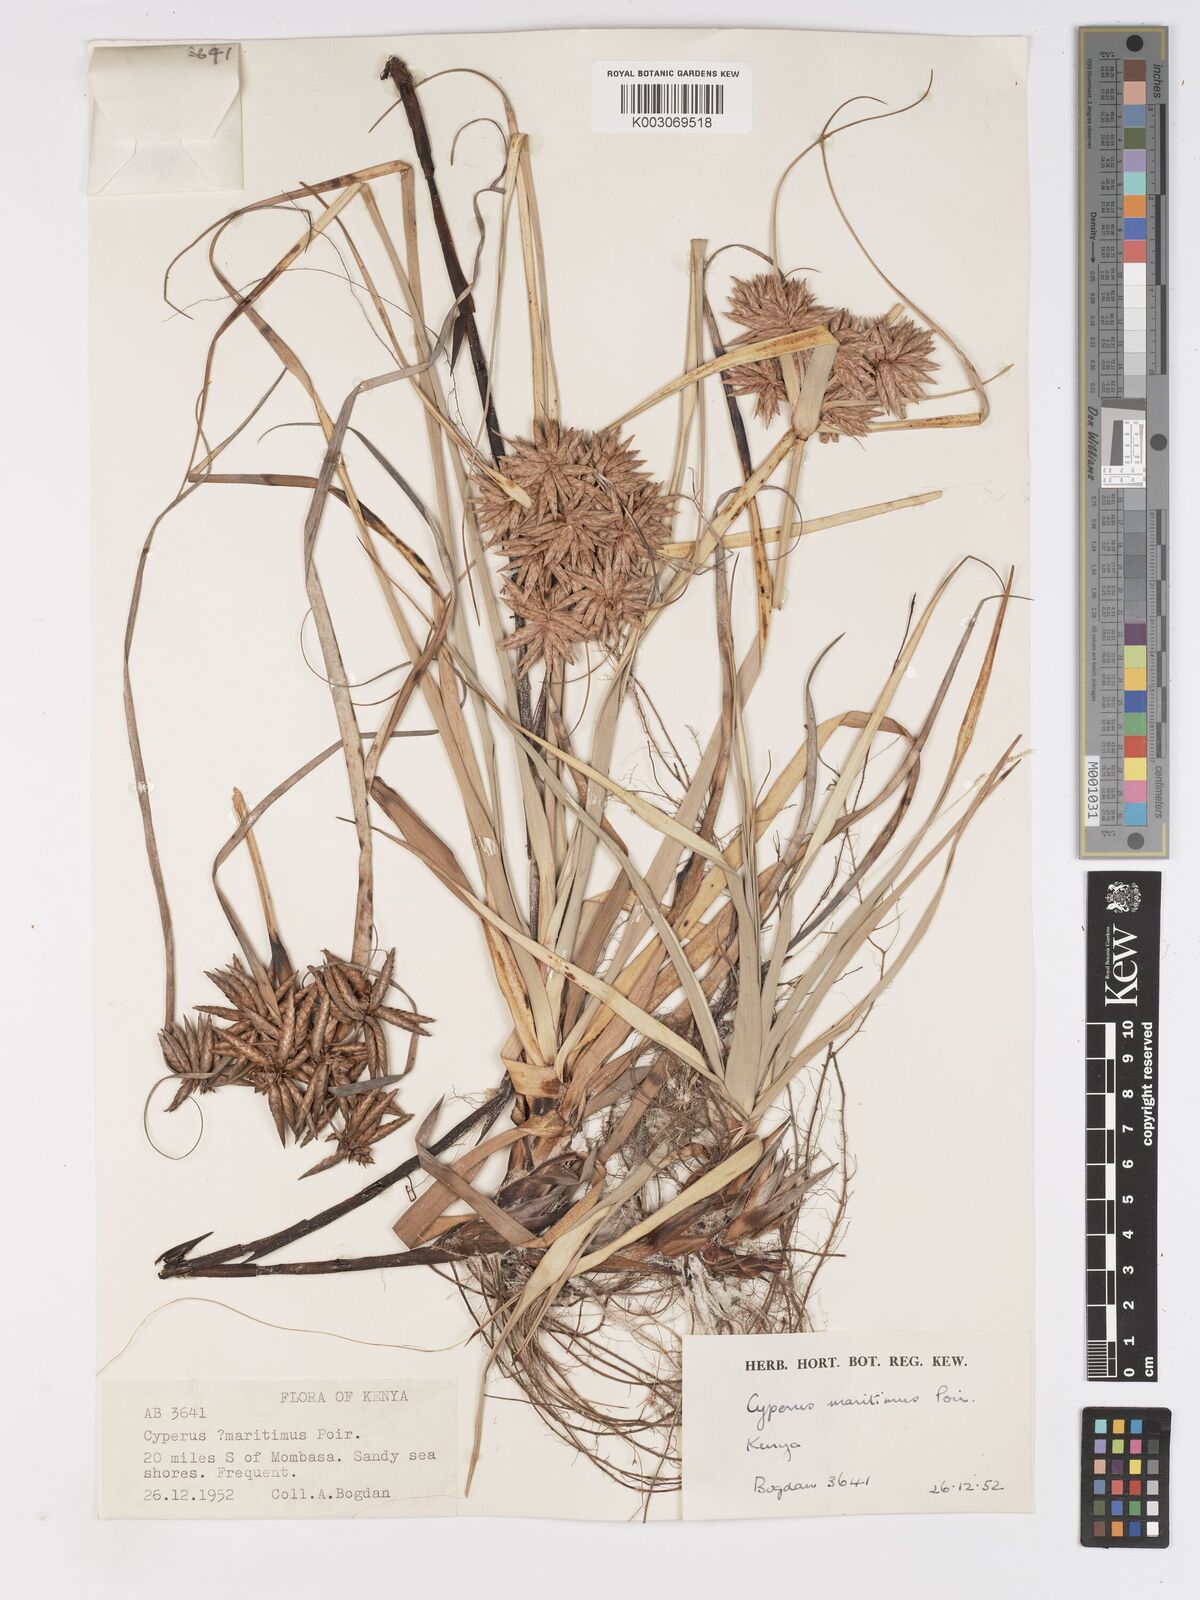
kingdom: Plantae
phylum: Tracheophyta
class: Liliopsida
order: Poales
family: Cyperaceae
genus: Cyperus
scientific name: Cyperus crassipes
